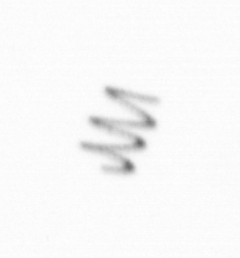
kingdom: Chromista
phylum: Ochrophyta
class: Bacillariophyceae
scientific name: Bacillariophyceae
